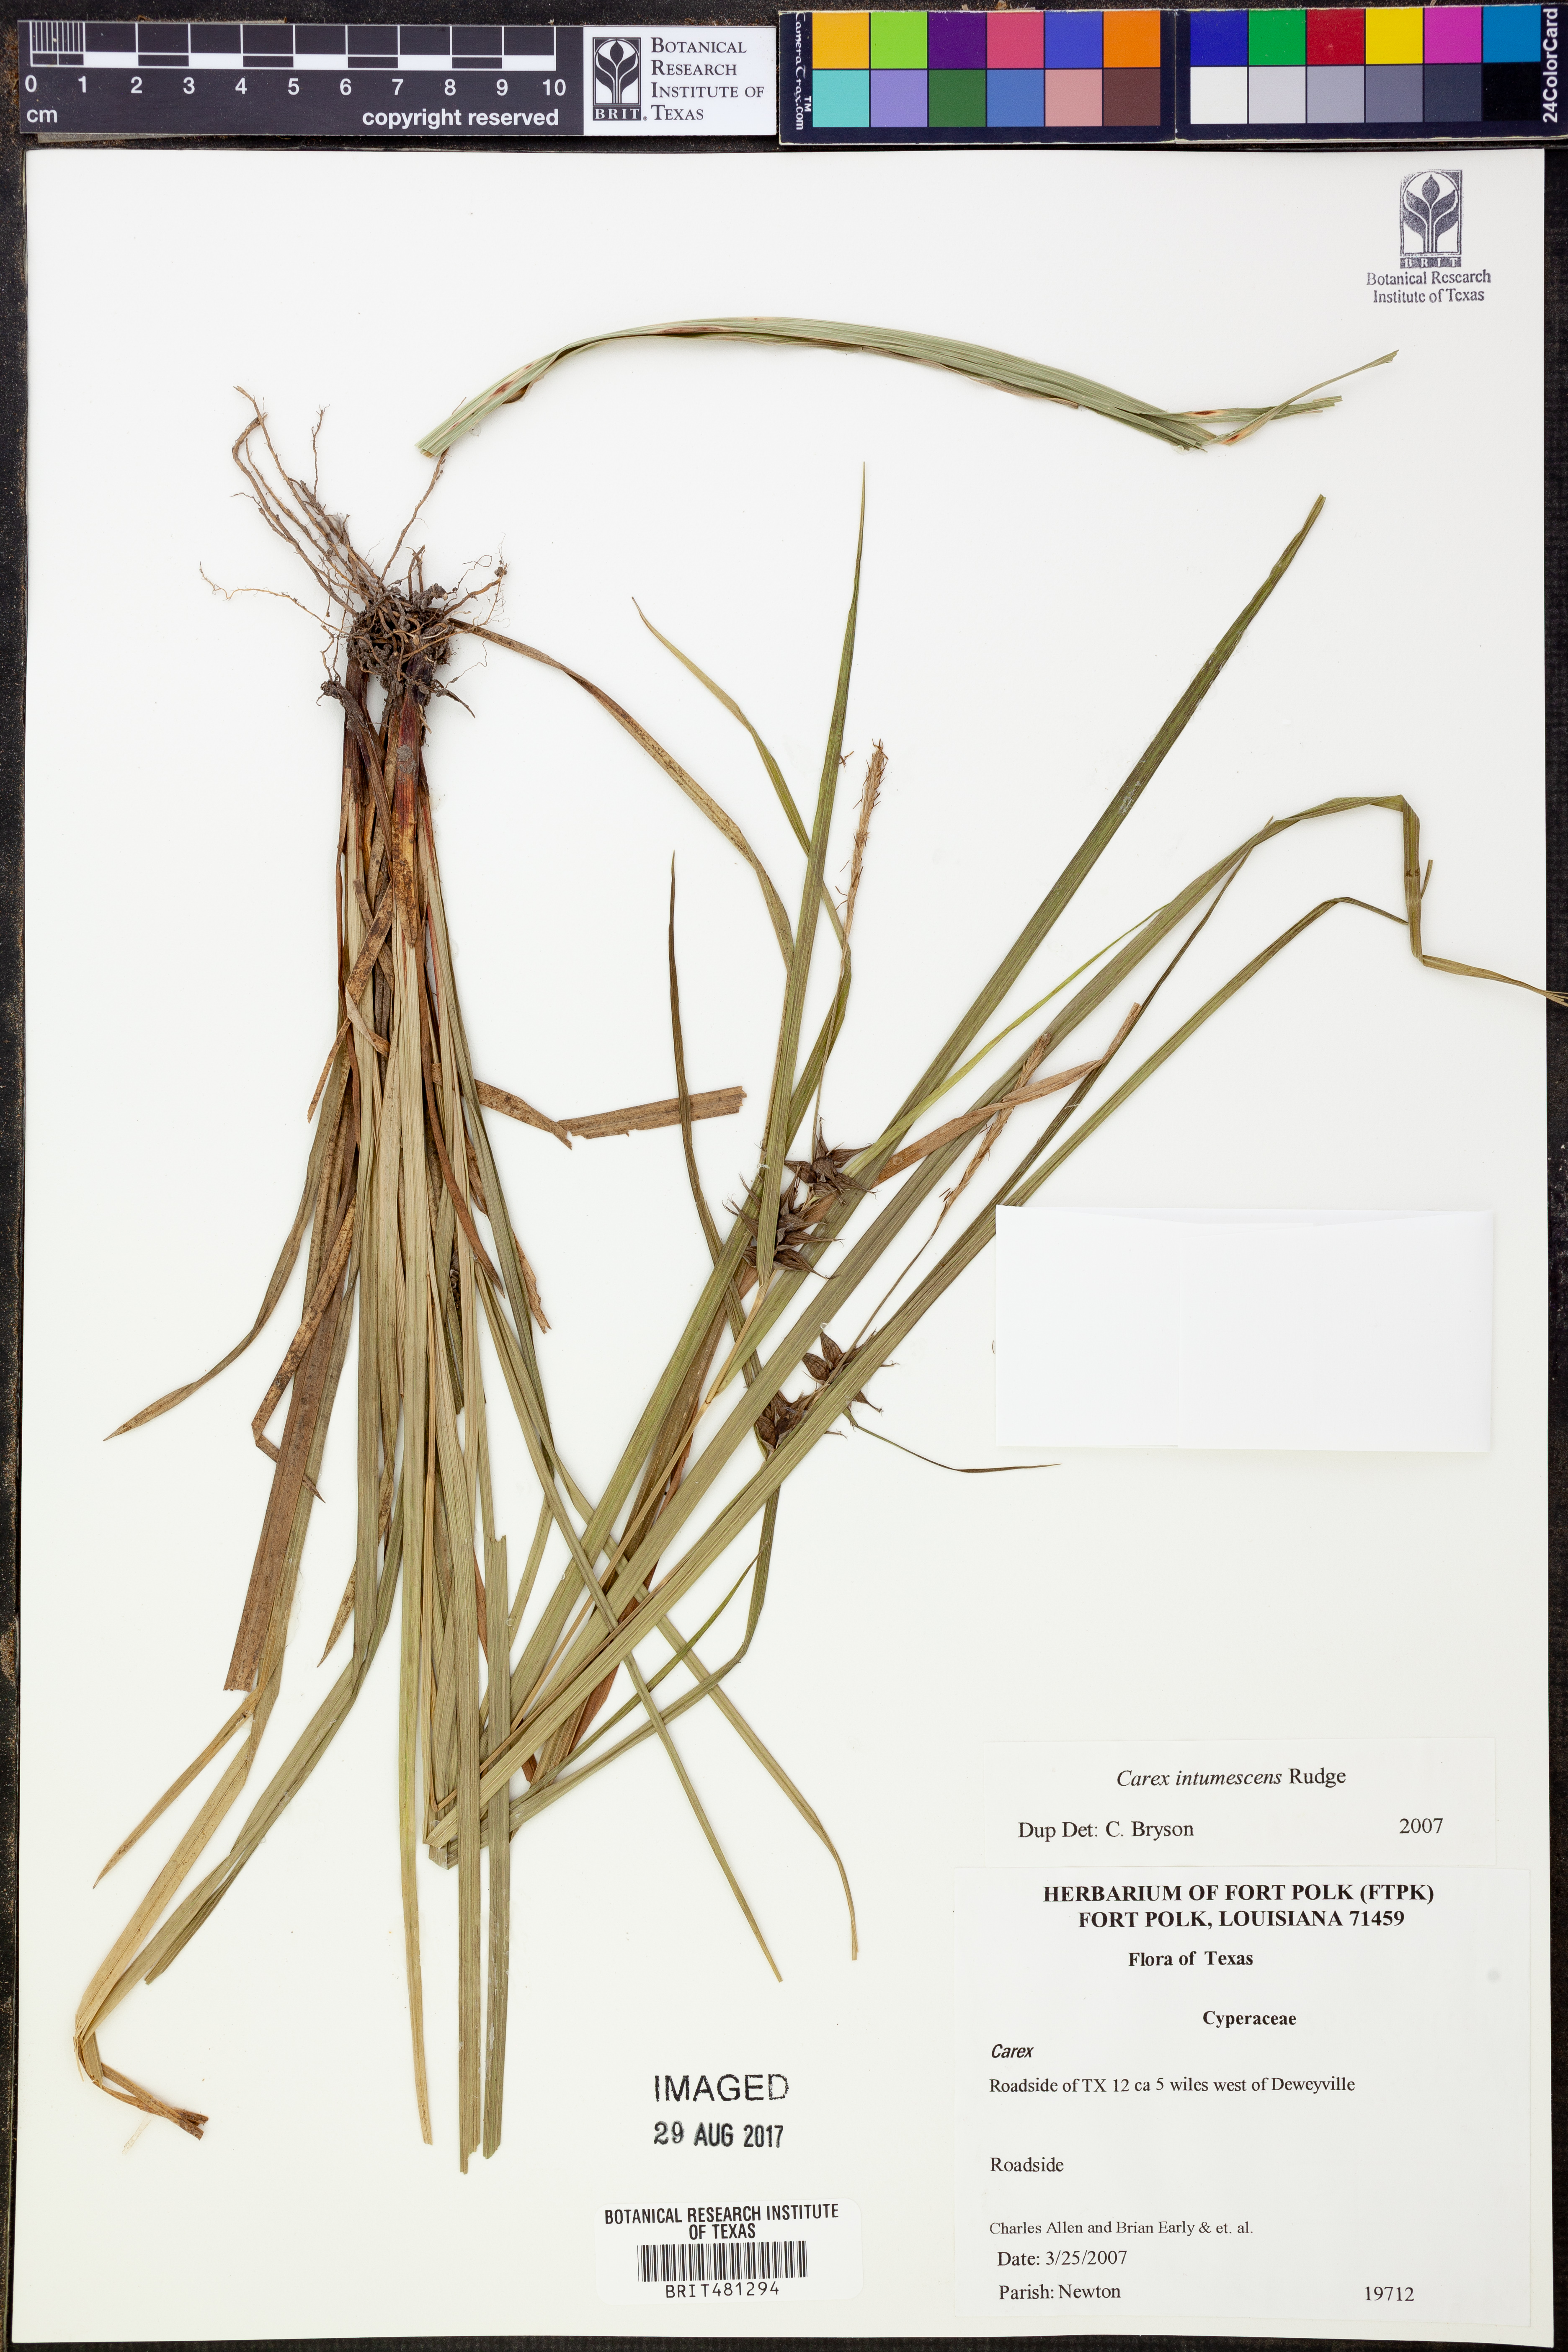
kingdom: Plantae
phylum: Tracheophyta
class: Liliopsida
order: Poales
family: Cyperaceae
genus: Carex
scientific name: Carex intumescens
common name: Greater bladder sedge
